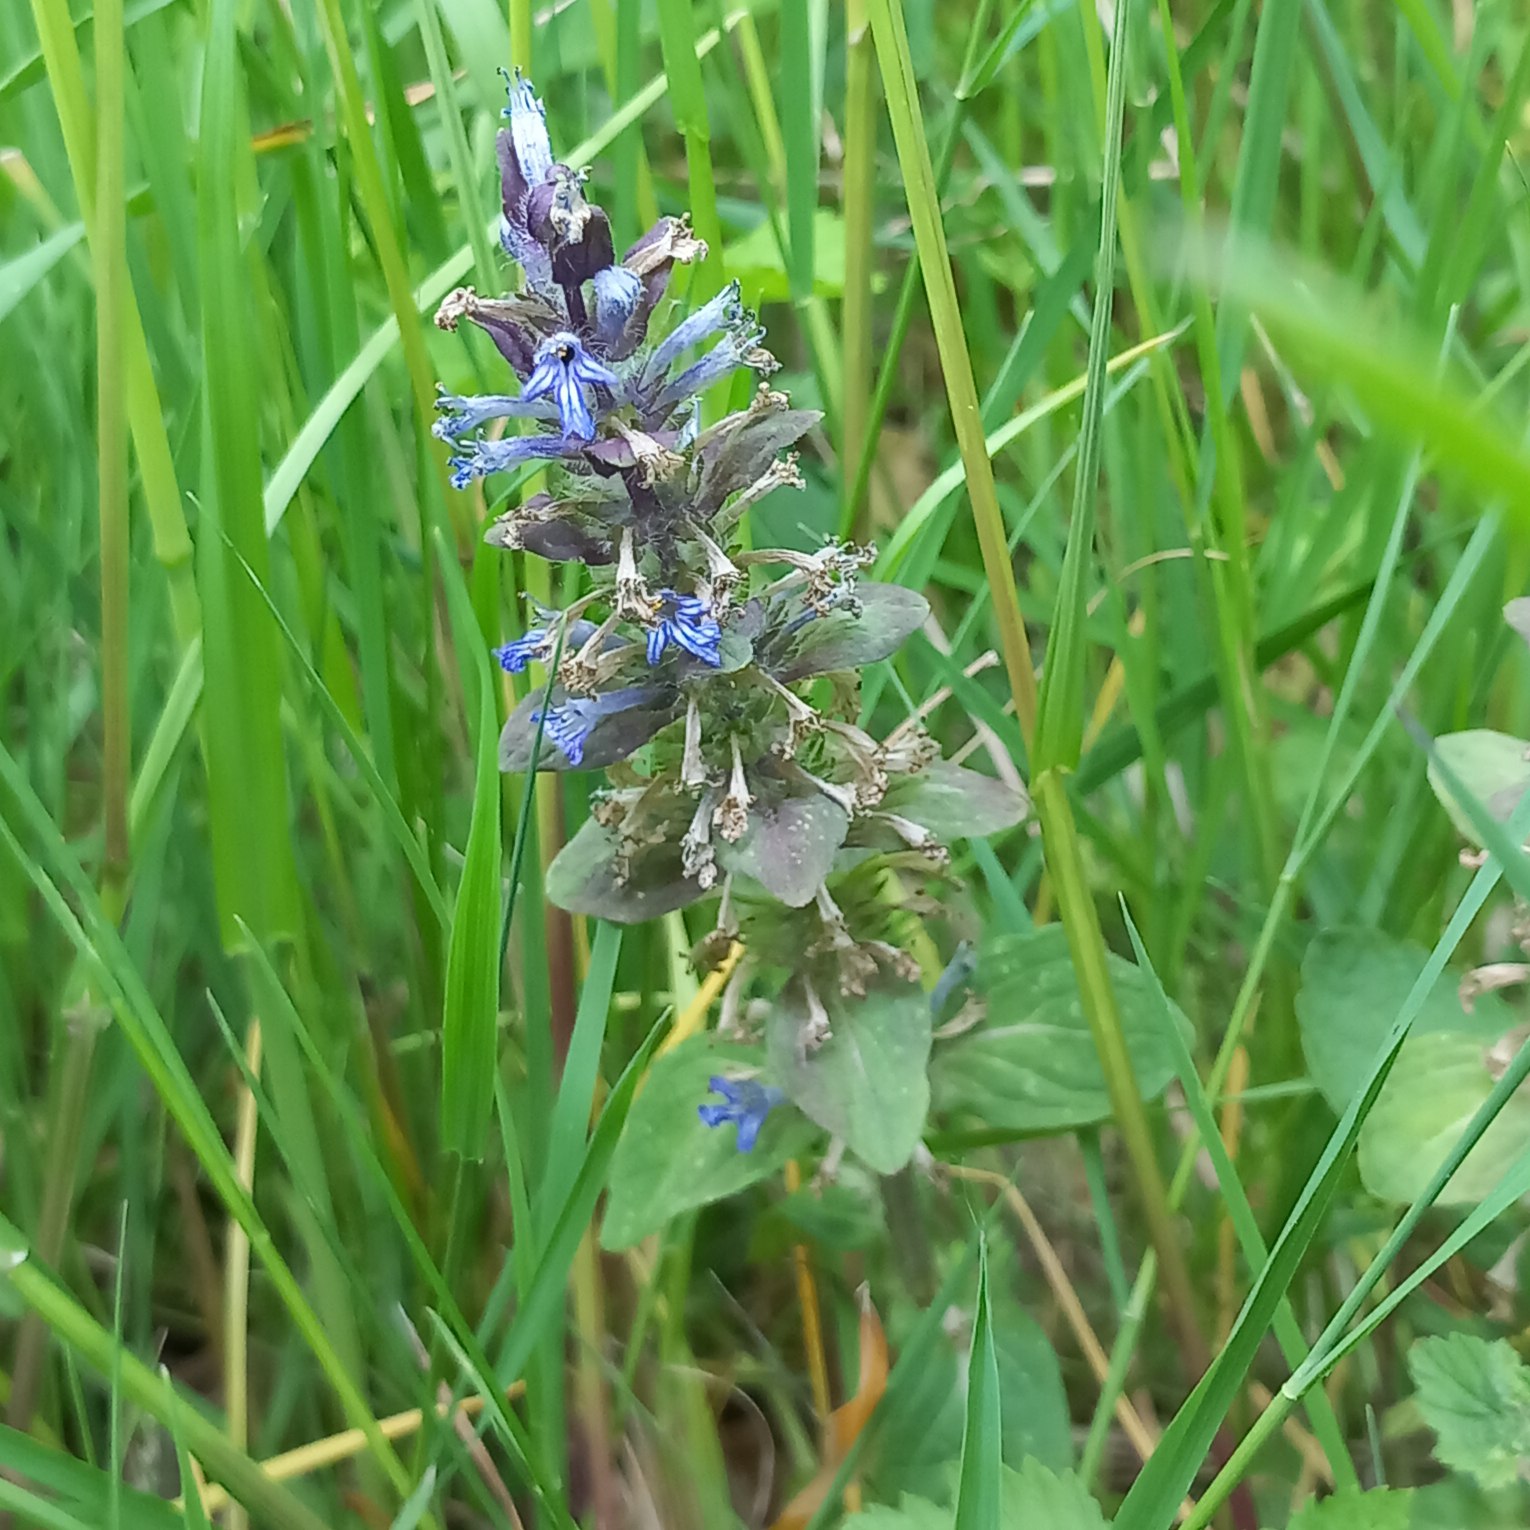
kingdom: Plantae
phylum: Tracheophyta
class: Magnoliopsida
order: Lamiales
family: Lamiaceae
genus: Ajuga
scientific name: Ajuga reptans
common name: Krybende læbeløs
